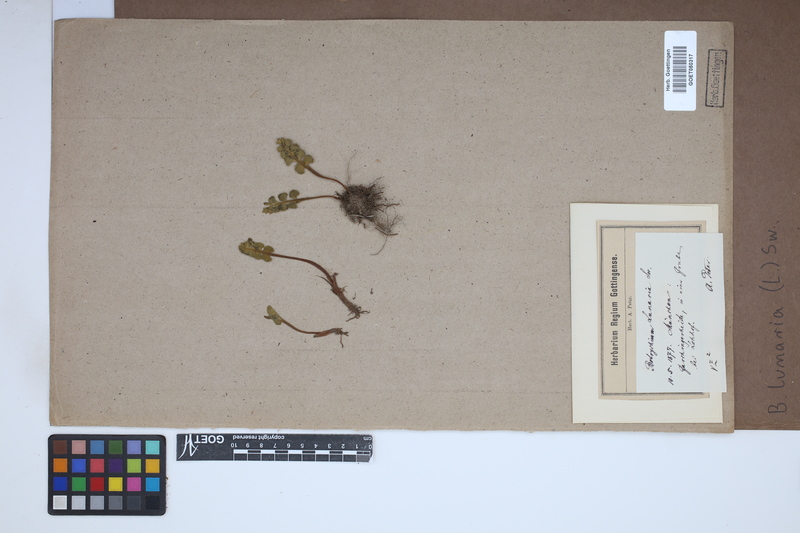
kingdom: Plantae
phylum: Tracheophyta
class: Polypodiopsida
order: Ophioglossales
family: Ophioglossaceae
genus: Botrychium
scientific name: Botrychium lunaria
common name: Moonwort
